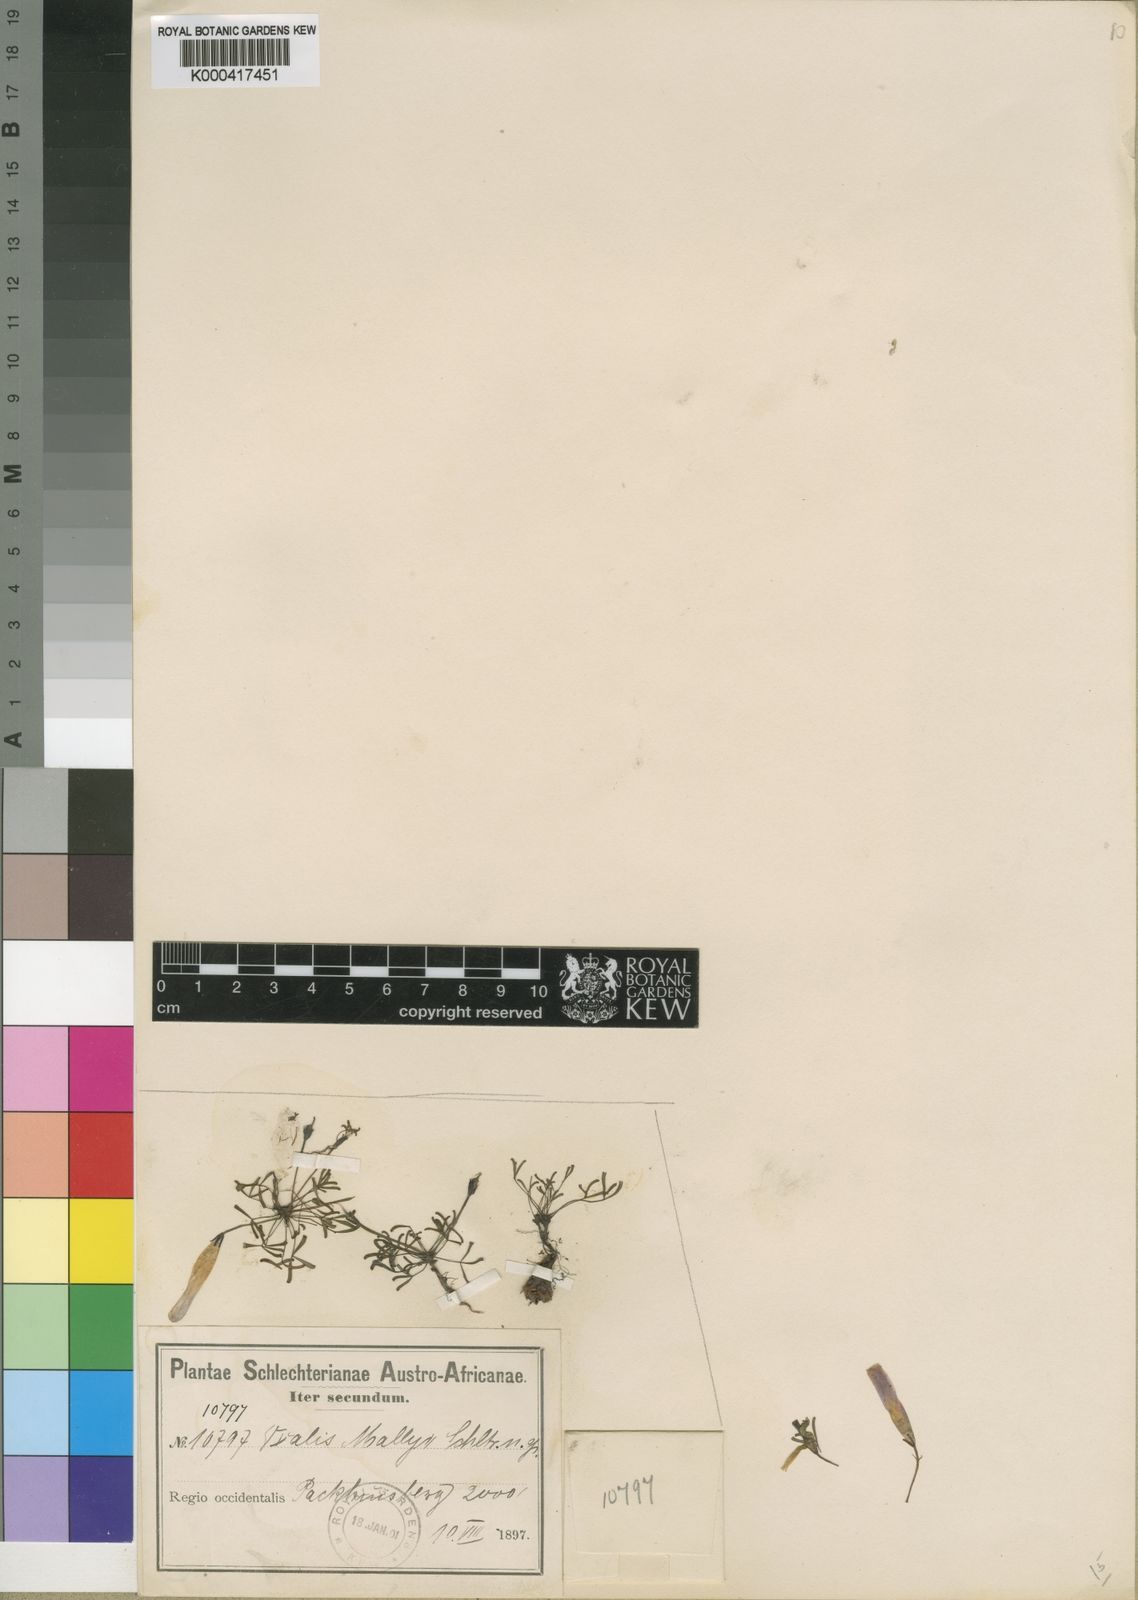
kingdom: Plantae
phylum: Tracheophyta
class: Magnoliopsida
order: Oxalidales
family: Oxalidaceae
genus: Oxalis
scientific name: Oxalis phloxidiflora
